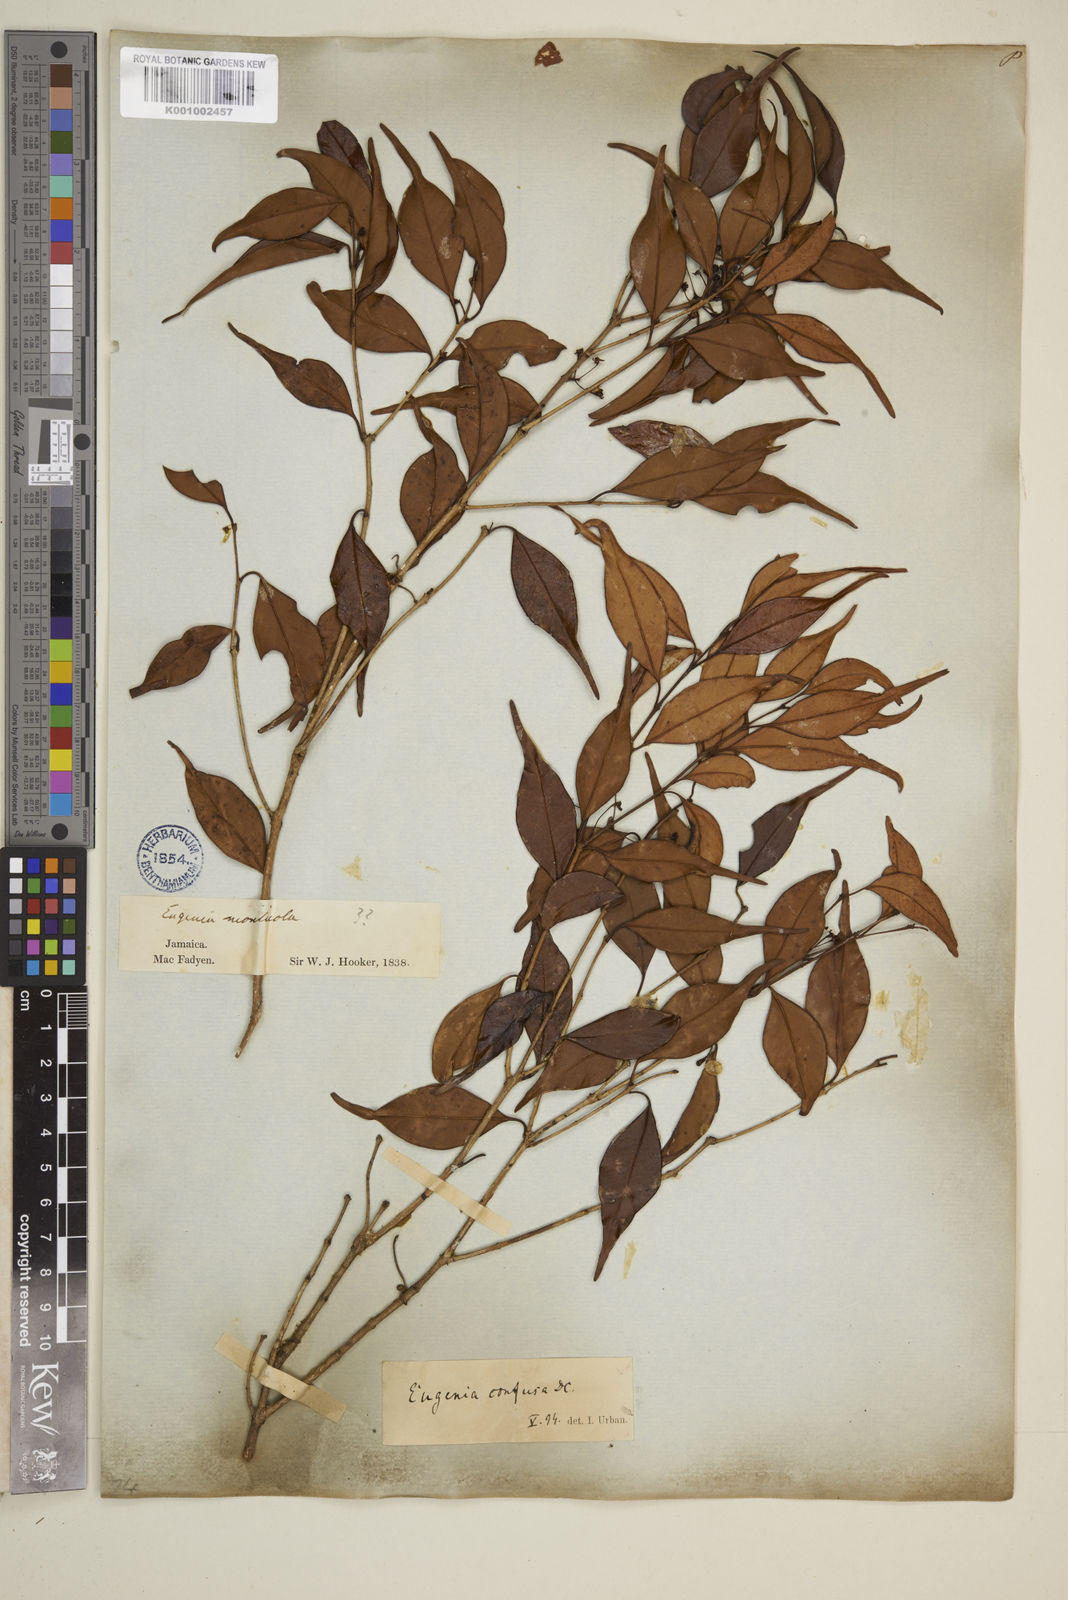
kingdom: Plantae
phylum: Tracheophyta
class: Magnoliopsida
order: Myrtales
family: Myrtaceae
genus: Eugenia
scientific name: Eugenia confusa
